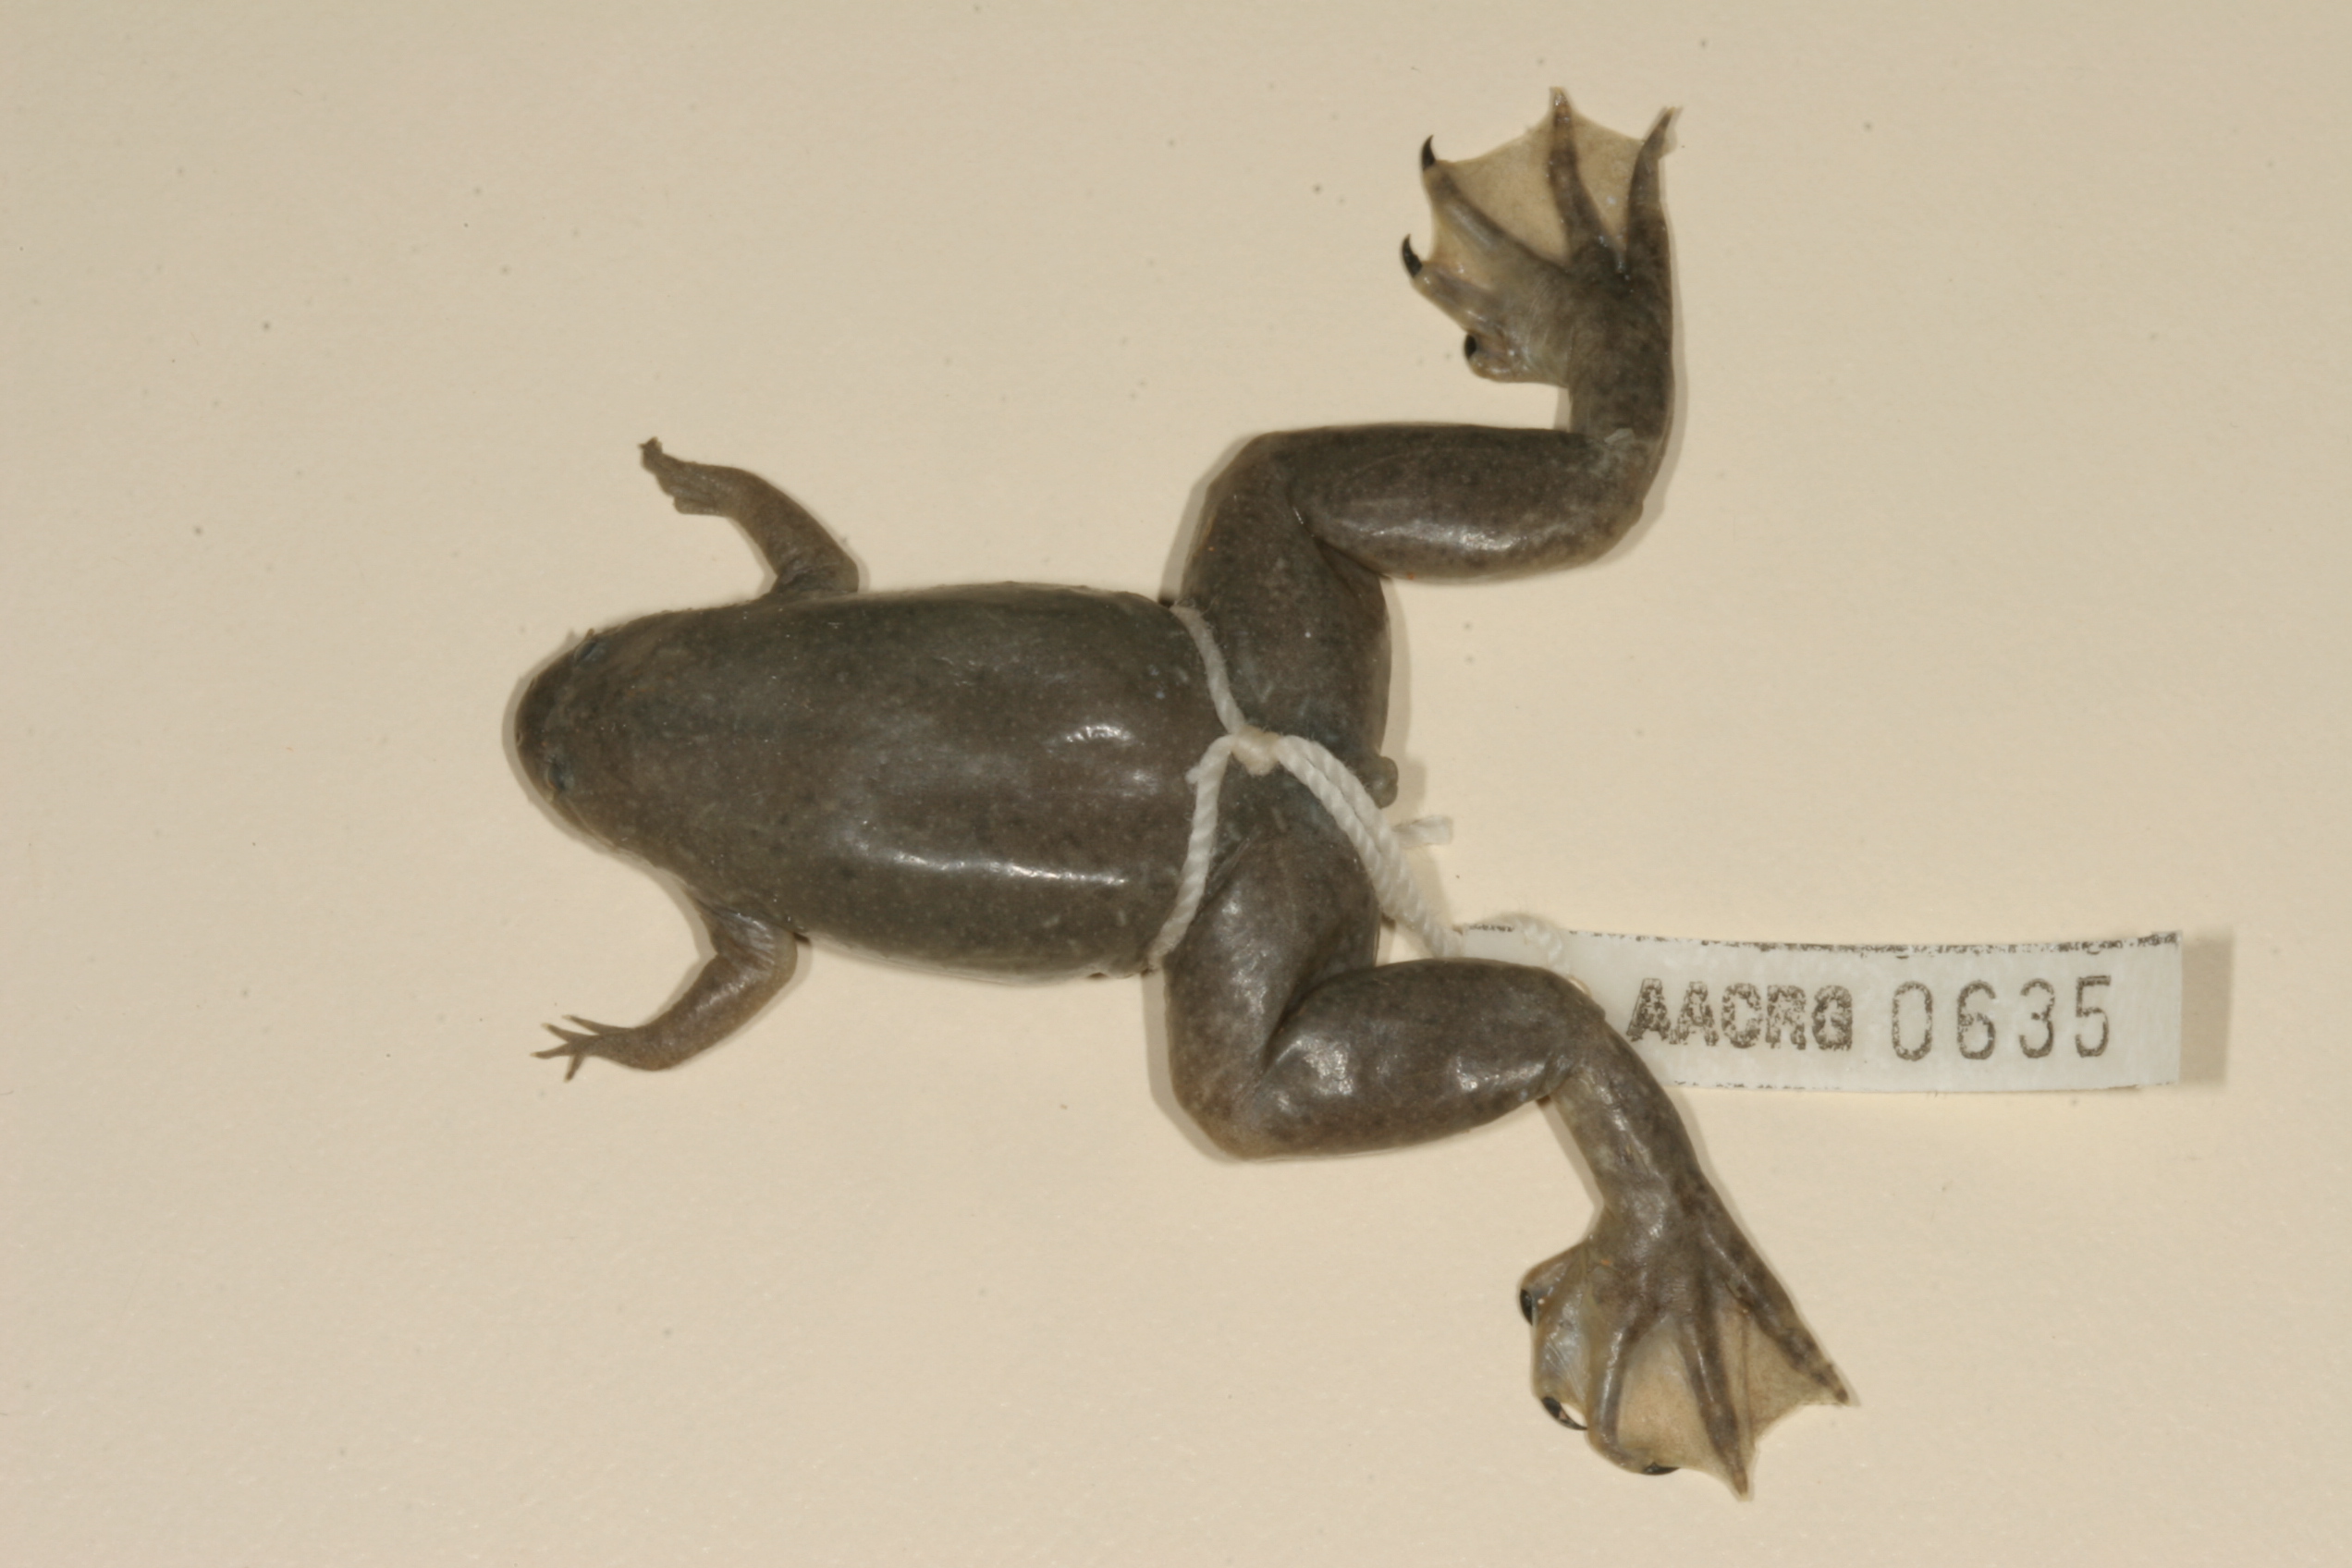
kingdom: Animalia
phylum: Chordata
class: Amphibia
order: Anura
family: Pipidae
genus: Xenopus
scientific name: Xenopus tropicalis
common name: Forest clawed frog
